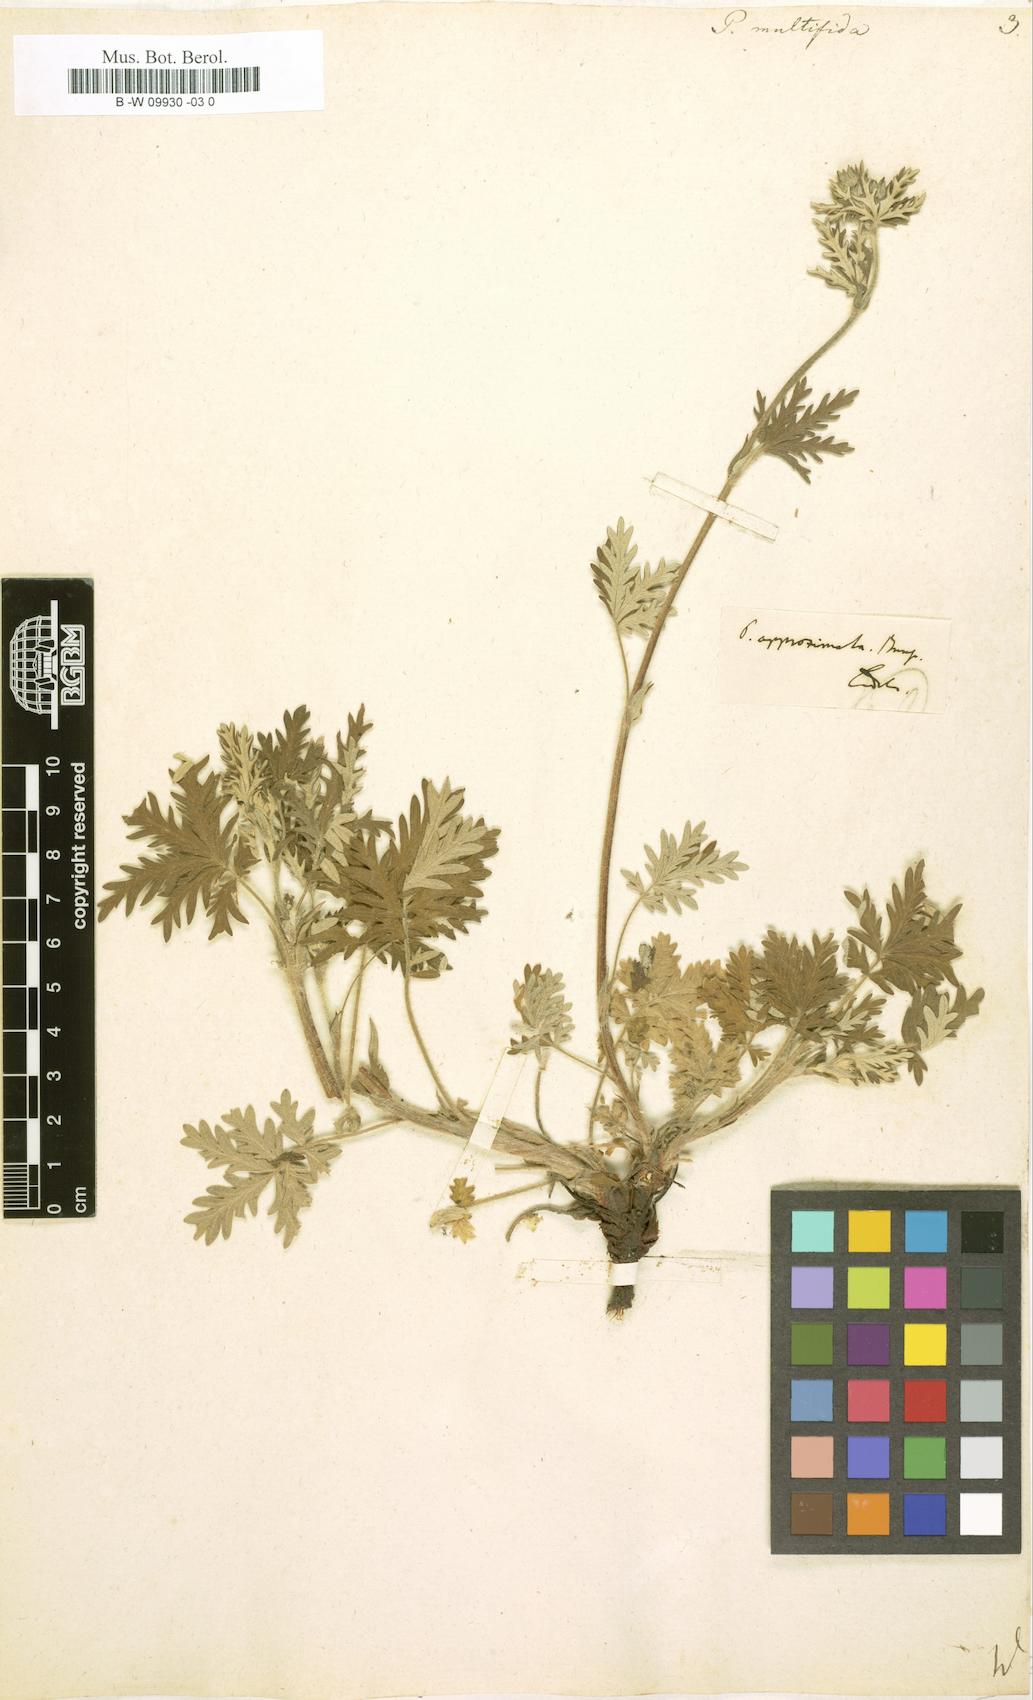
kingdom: Plantae
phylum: Tracheophyta
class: Magnoliopsida
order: Rosales
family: Rosaceae
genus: Potentilla
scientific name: Potentilla multifida
